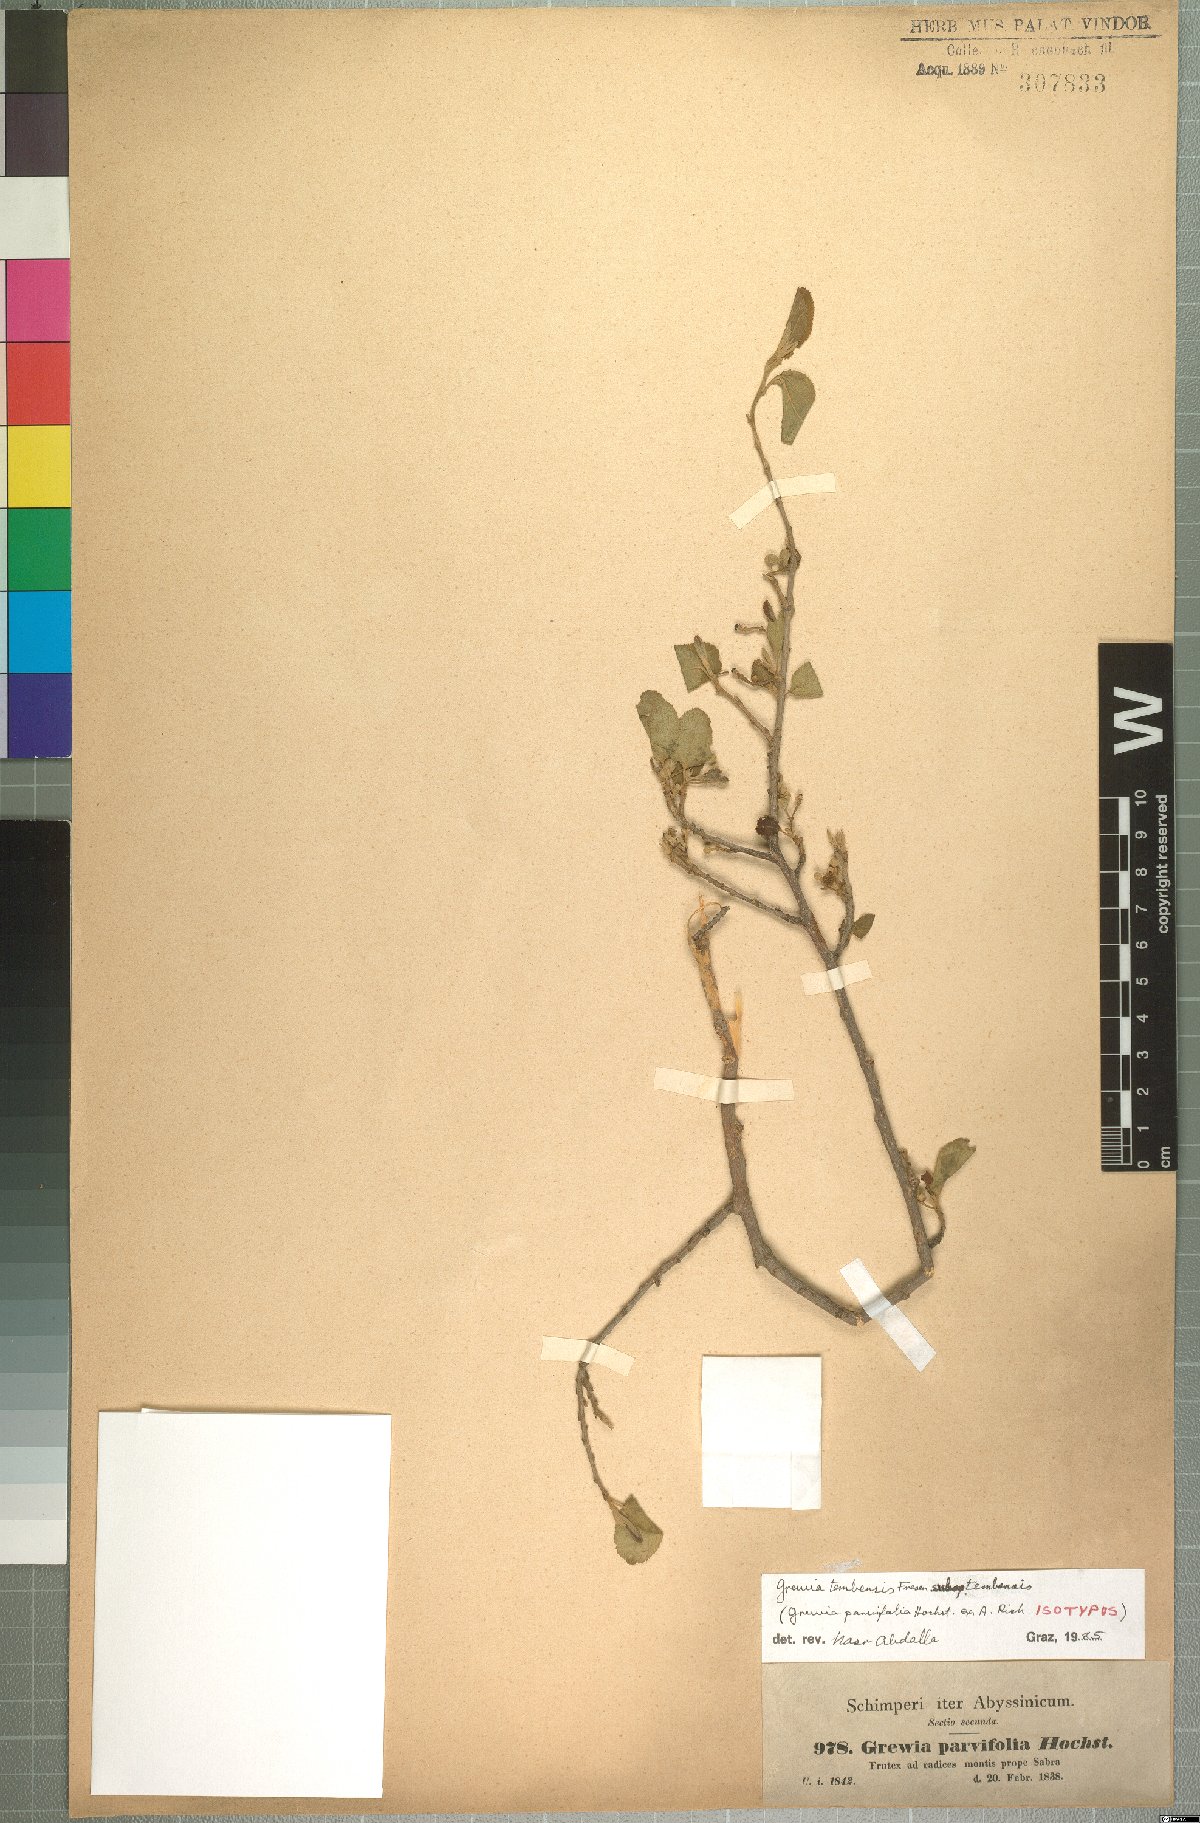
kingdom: Plantae
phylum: Tracheophyta
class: Magnoliopsida
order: Malvales
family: Malvaceae
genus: Grewia
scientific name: Grewia tembensis
